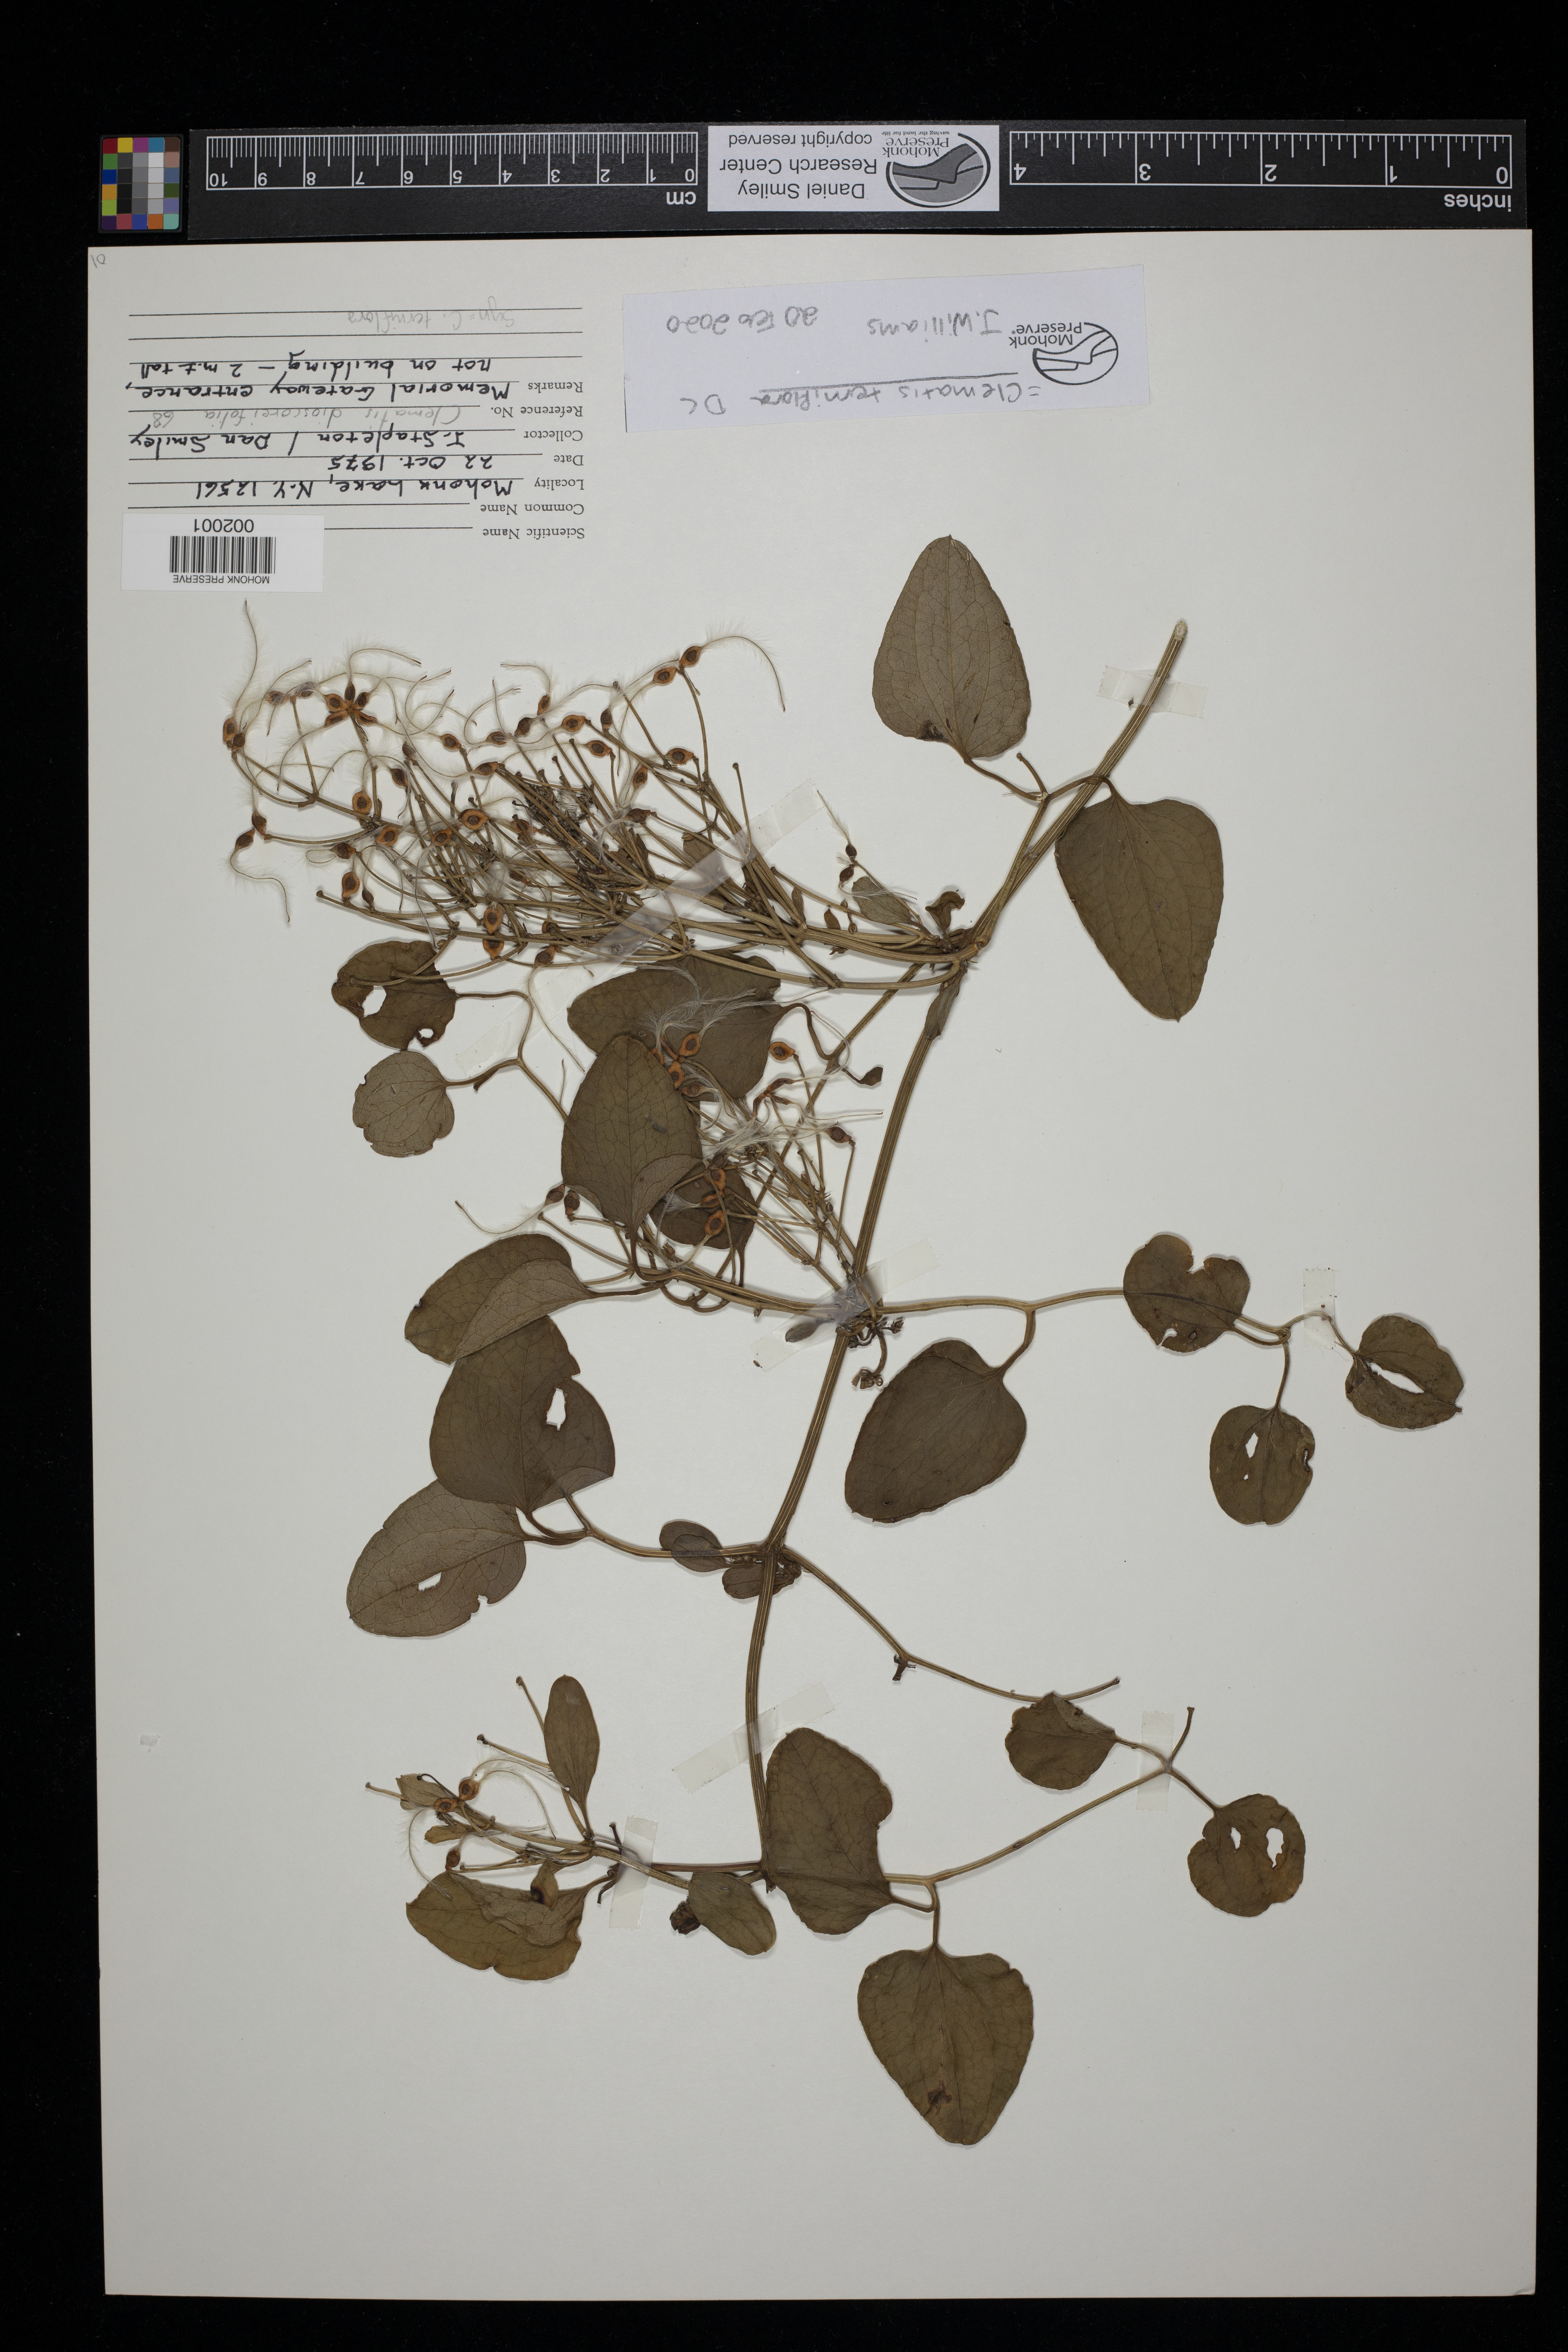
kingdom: Plantae
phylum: Tracheophyta
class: Magnoliopsida
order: Ranunculales
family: Ranunculaceae
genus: Clematis
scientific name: Clematis terniflora
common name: Sweet autumn clematis
